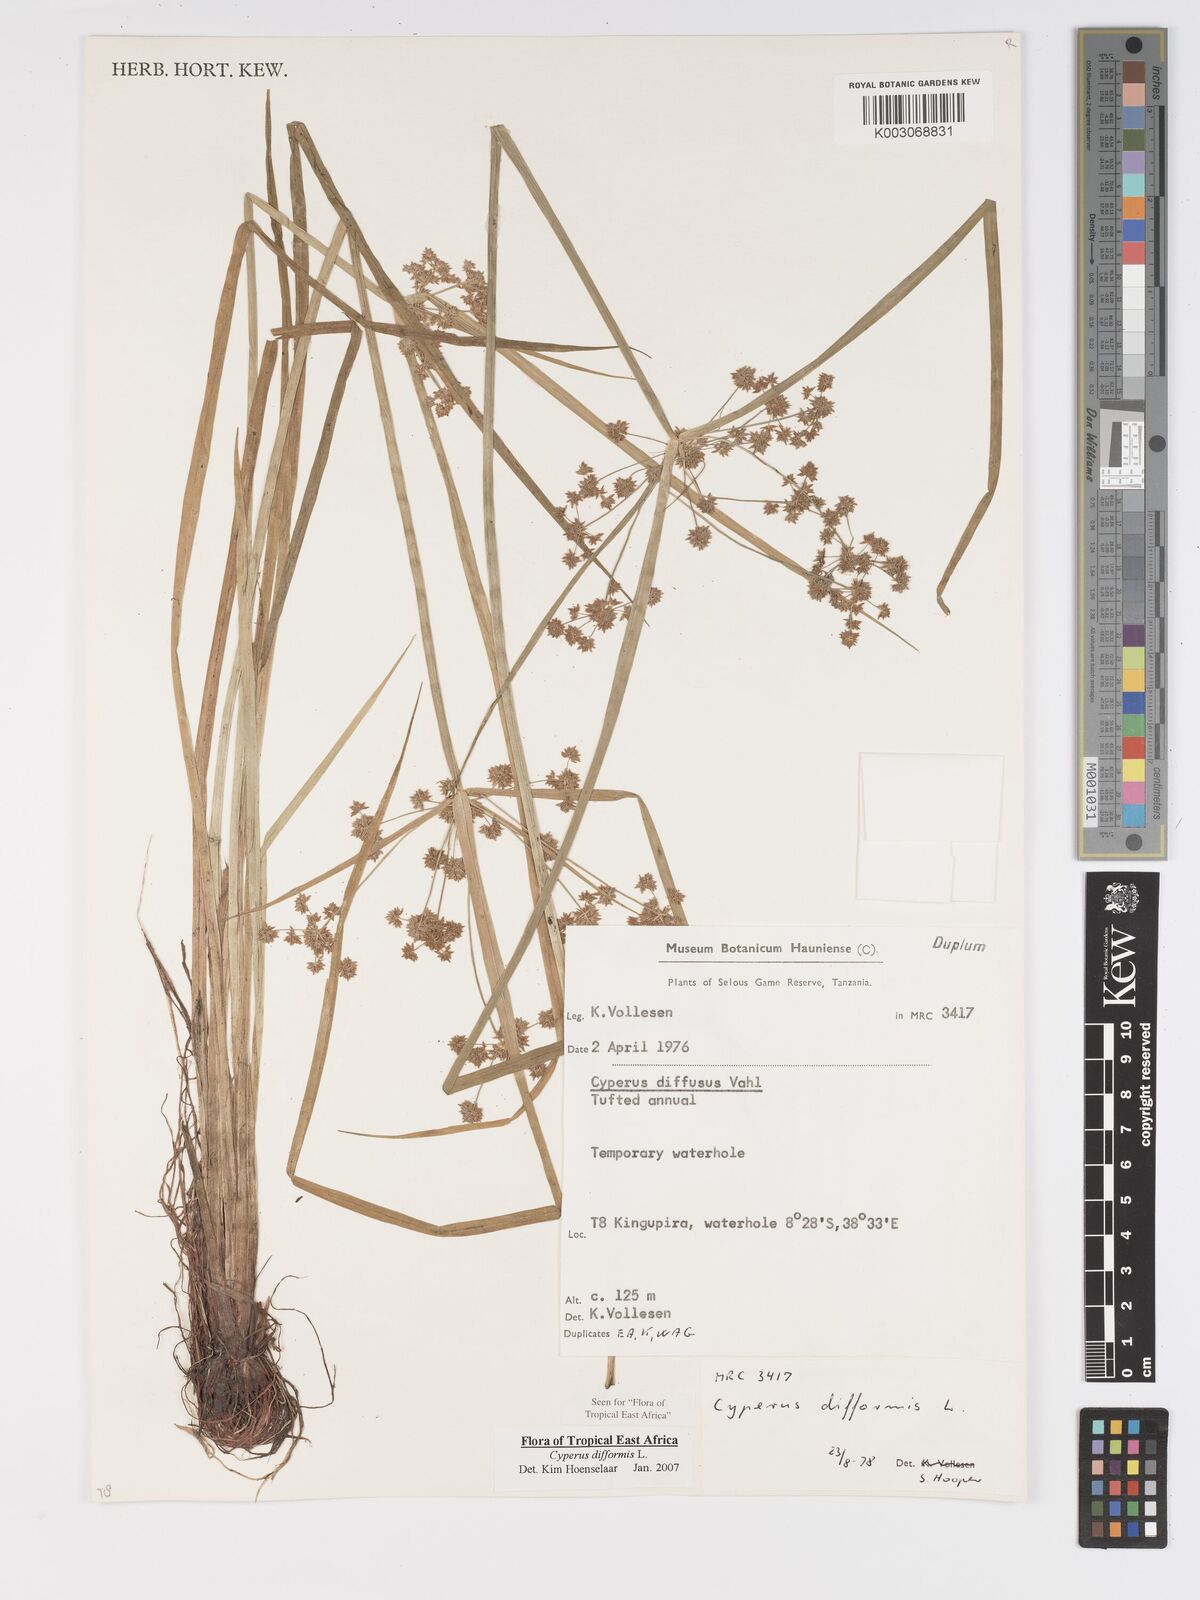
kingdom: Plantae
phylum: Tracheophyta
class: Liliopsida
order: Poales
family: Cyperaceae
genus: Cyperus
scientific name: Cyperus difformis
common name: Variable flatsedge
